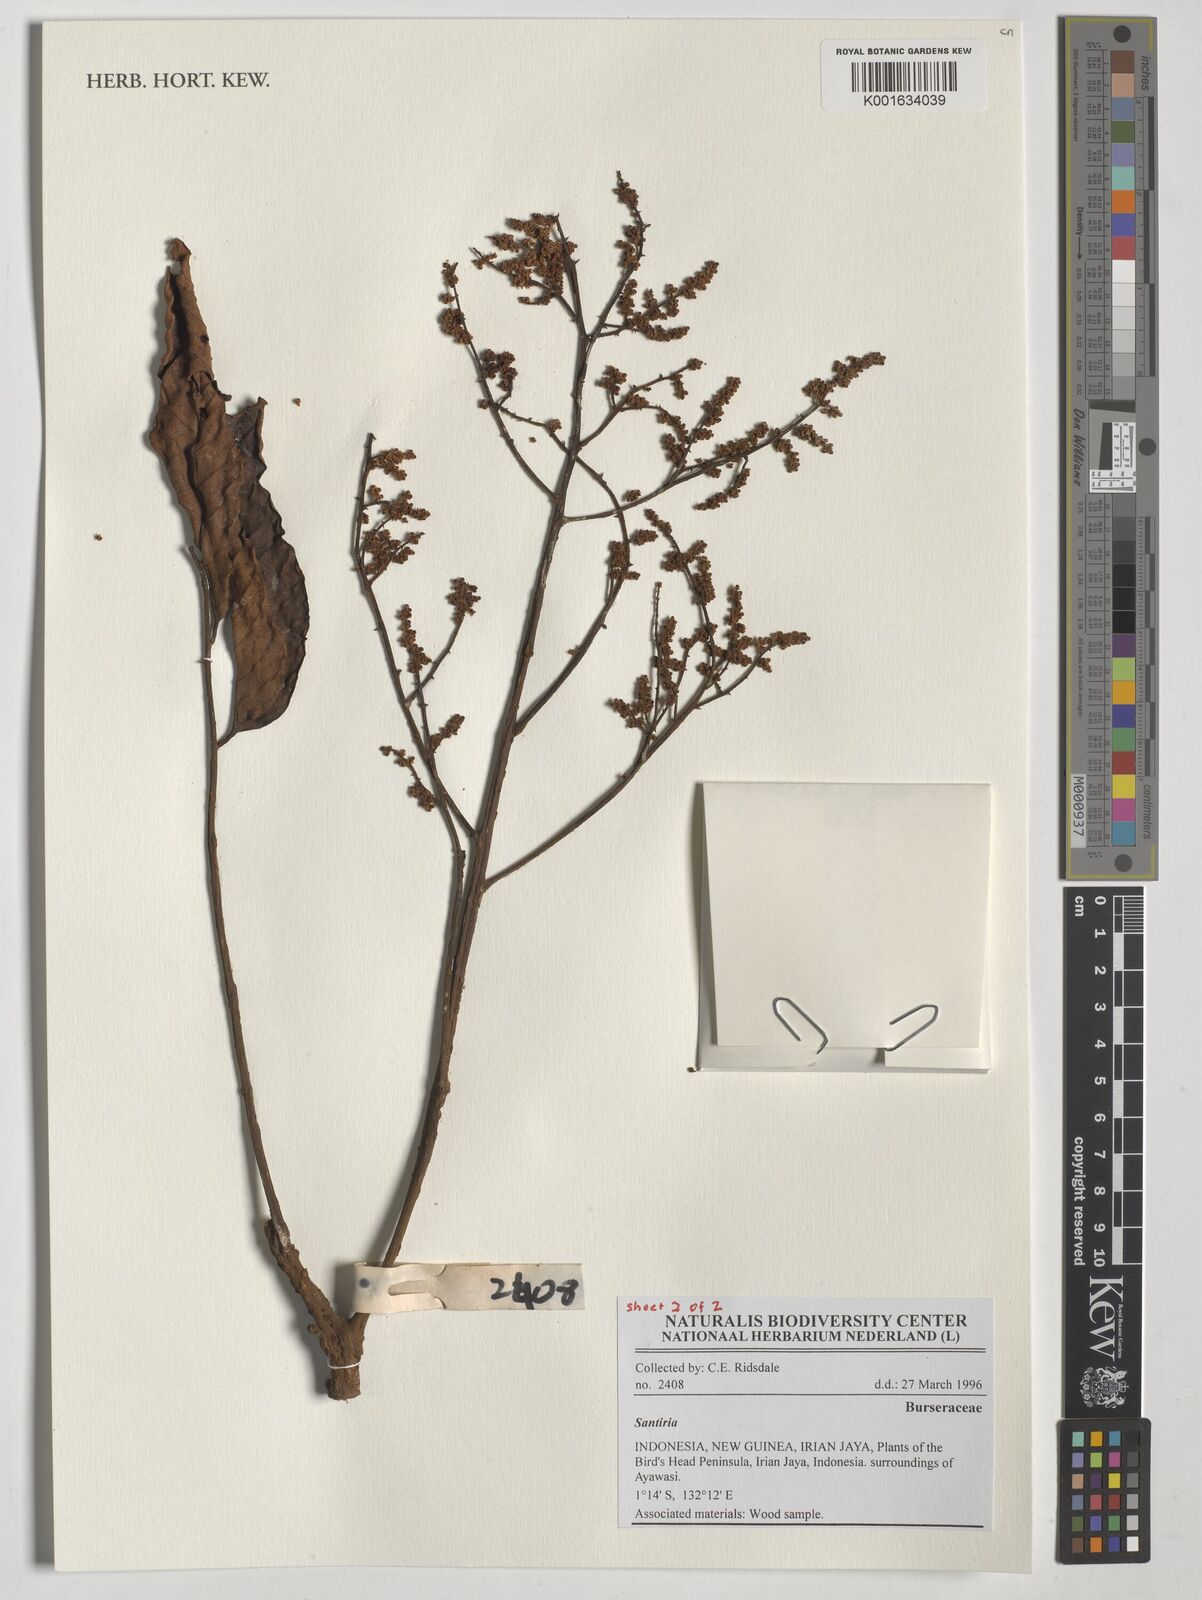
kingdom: Plantae
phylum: Tracheophyta
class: Magnoliopsida
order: Sapindales
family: Burseraceae
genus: Santiria
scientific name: Santiria
